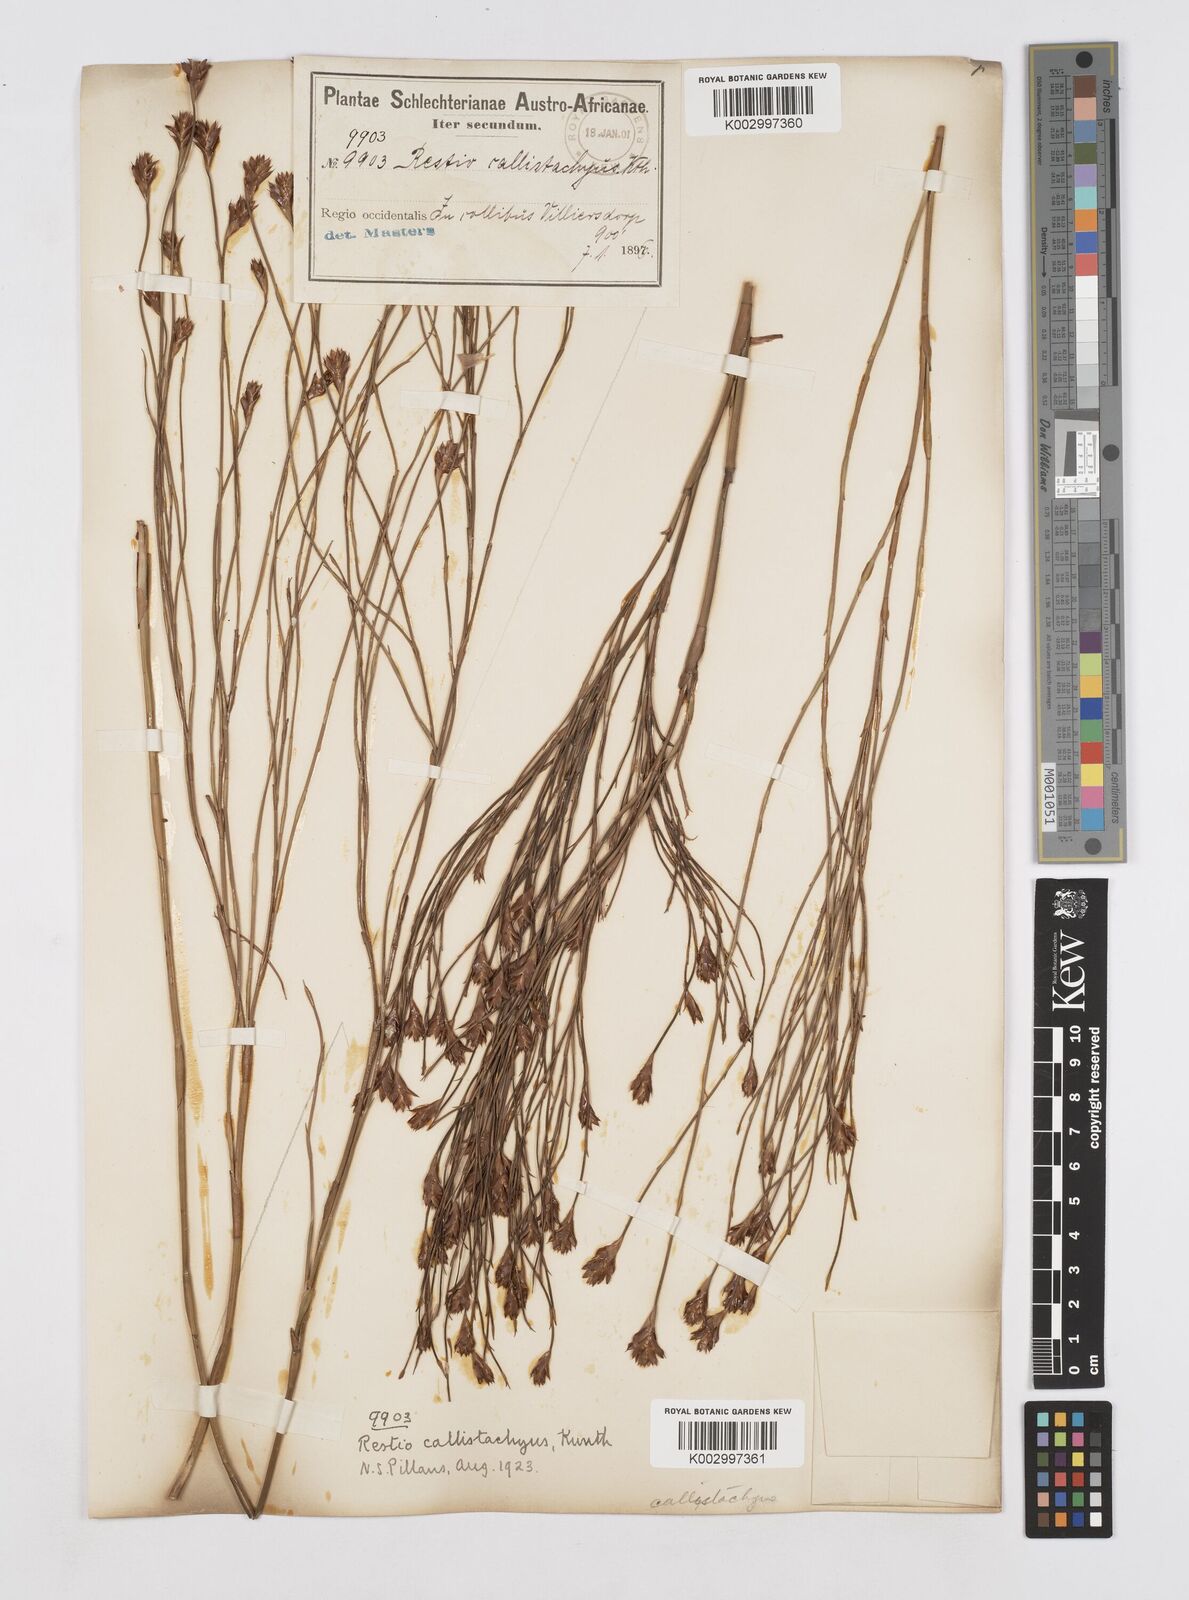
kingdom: Plantae
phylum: Tracheophyta
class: Liliopsida
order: Poales
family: Restionaceae
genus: Platycaulos
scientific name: Platycaulos callistachyus
